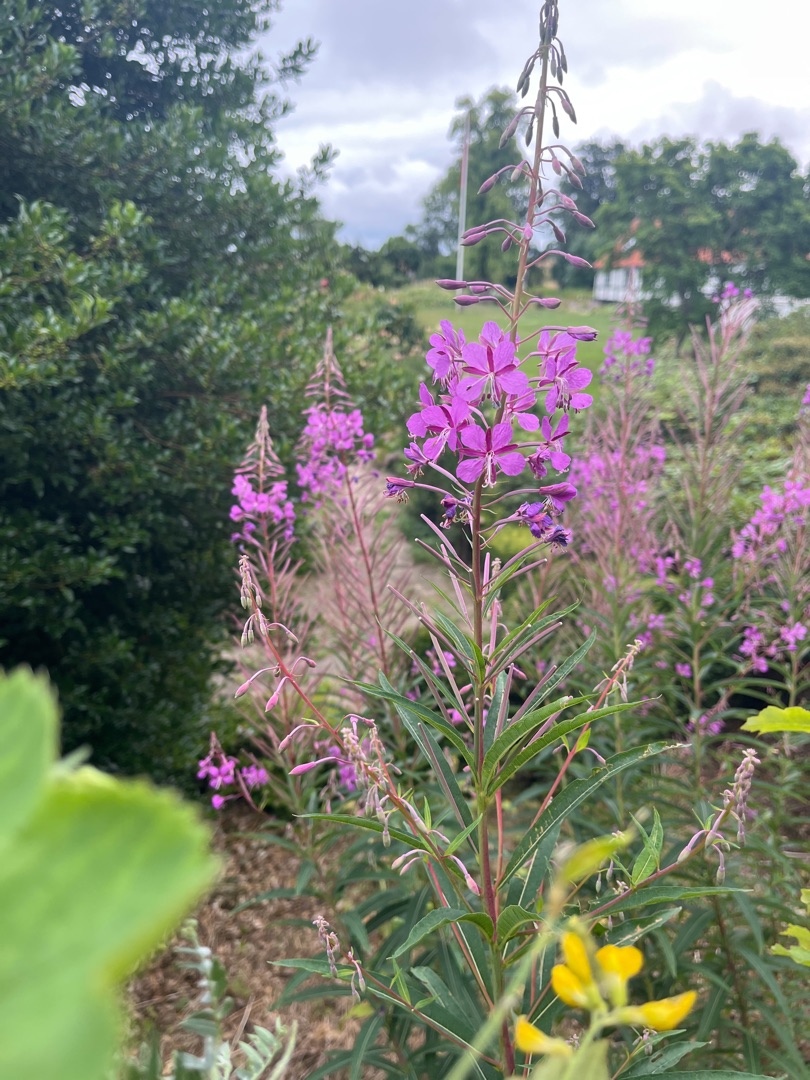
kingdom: Plantae
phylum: Tracheophyta
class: Magnoliopsida
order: Myrtales
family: Onagraceae
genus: Chamaenerion
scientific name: Chamaenerion angustifolium
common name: Gederams
